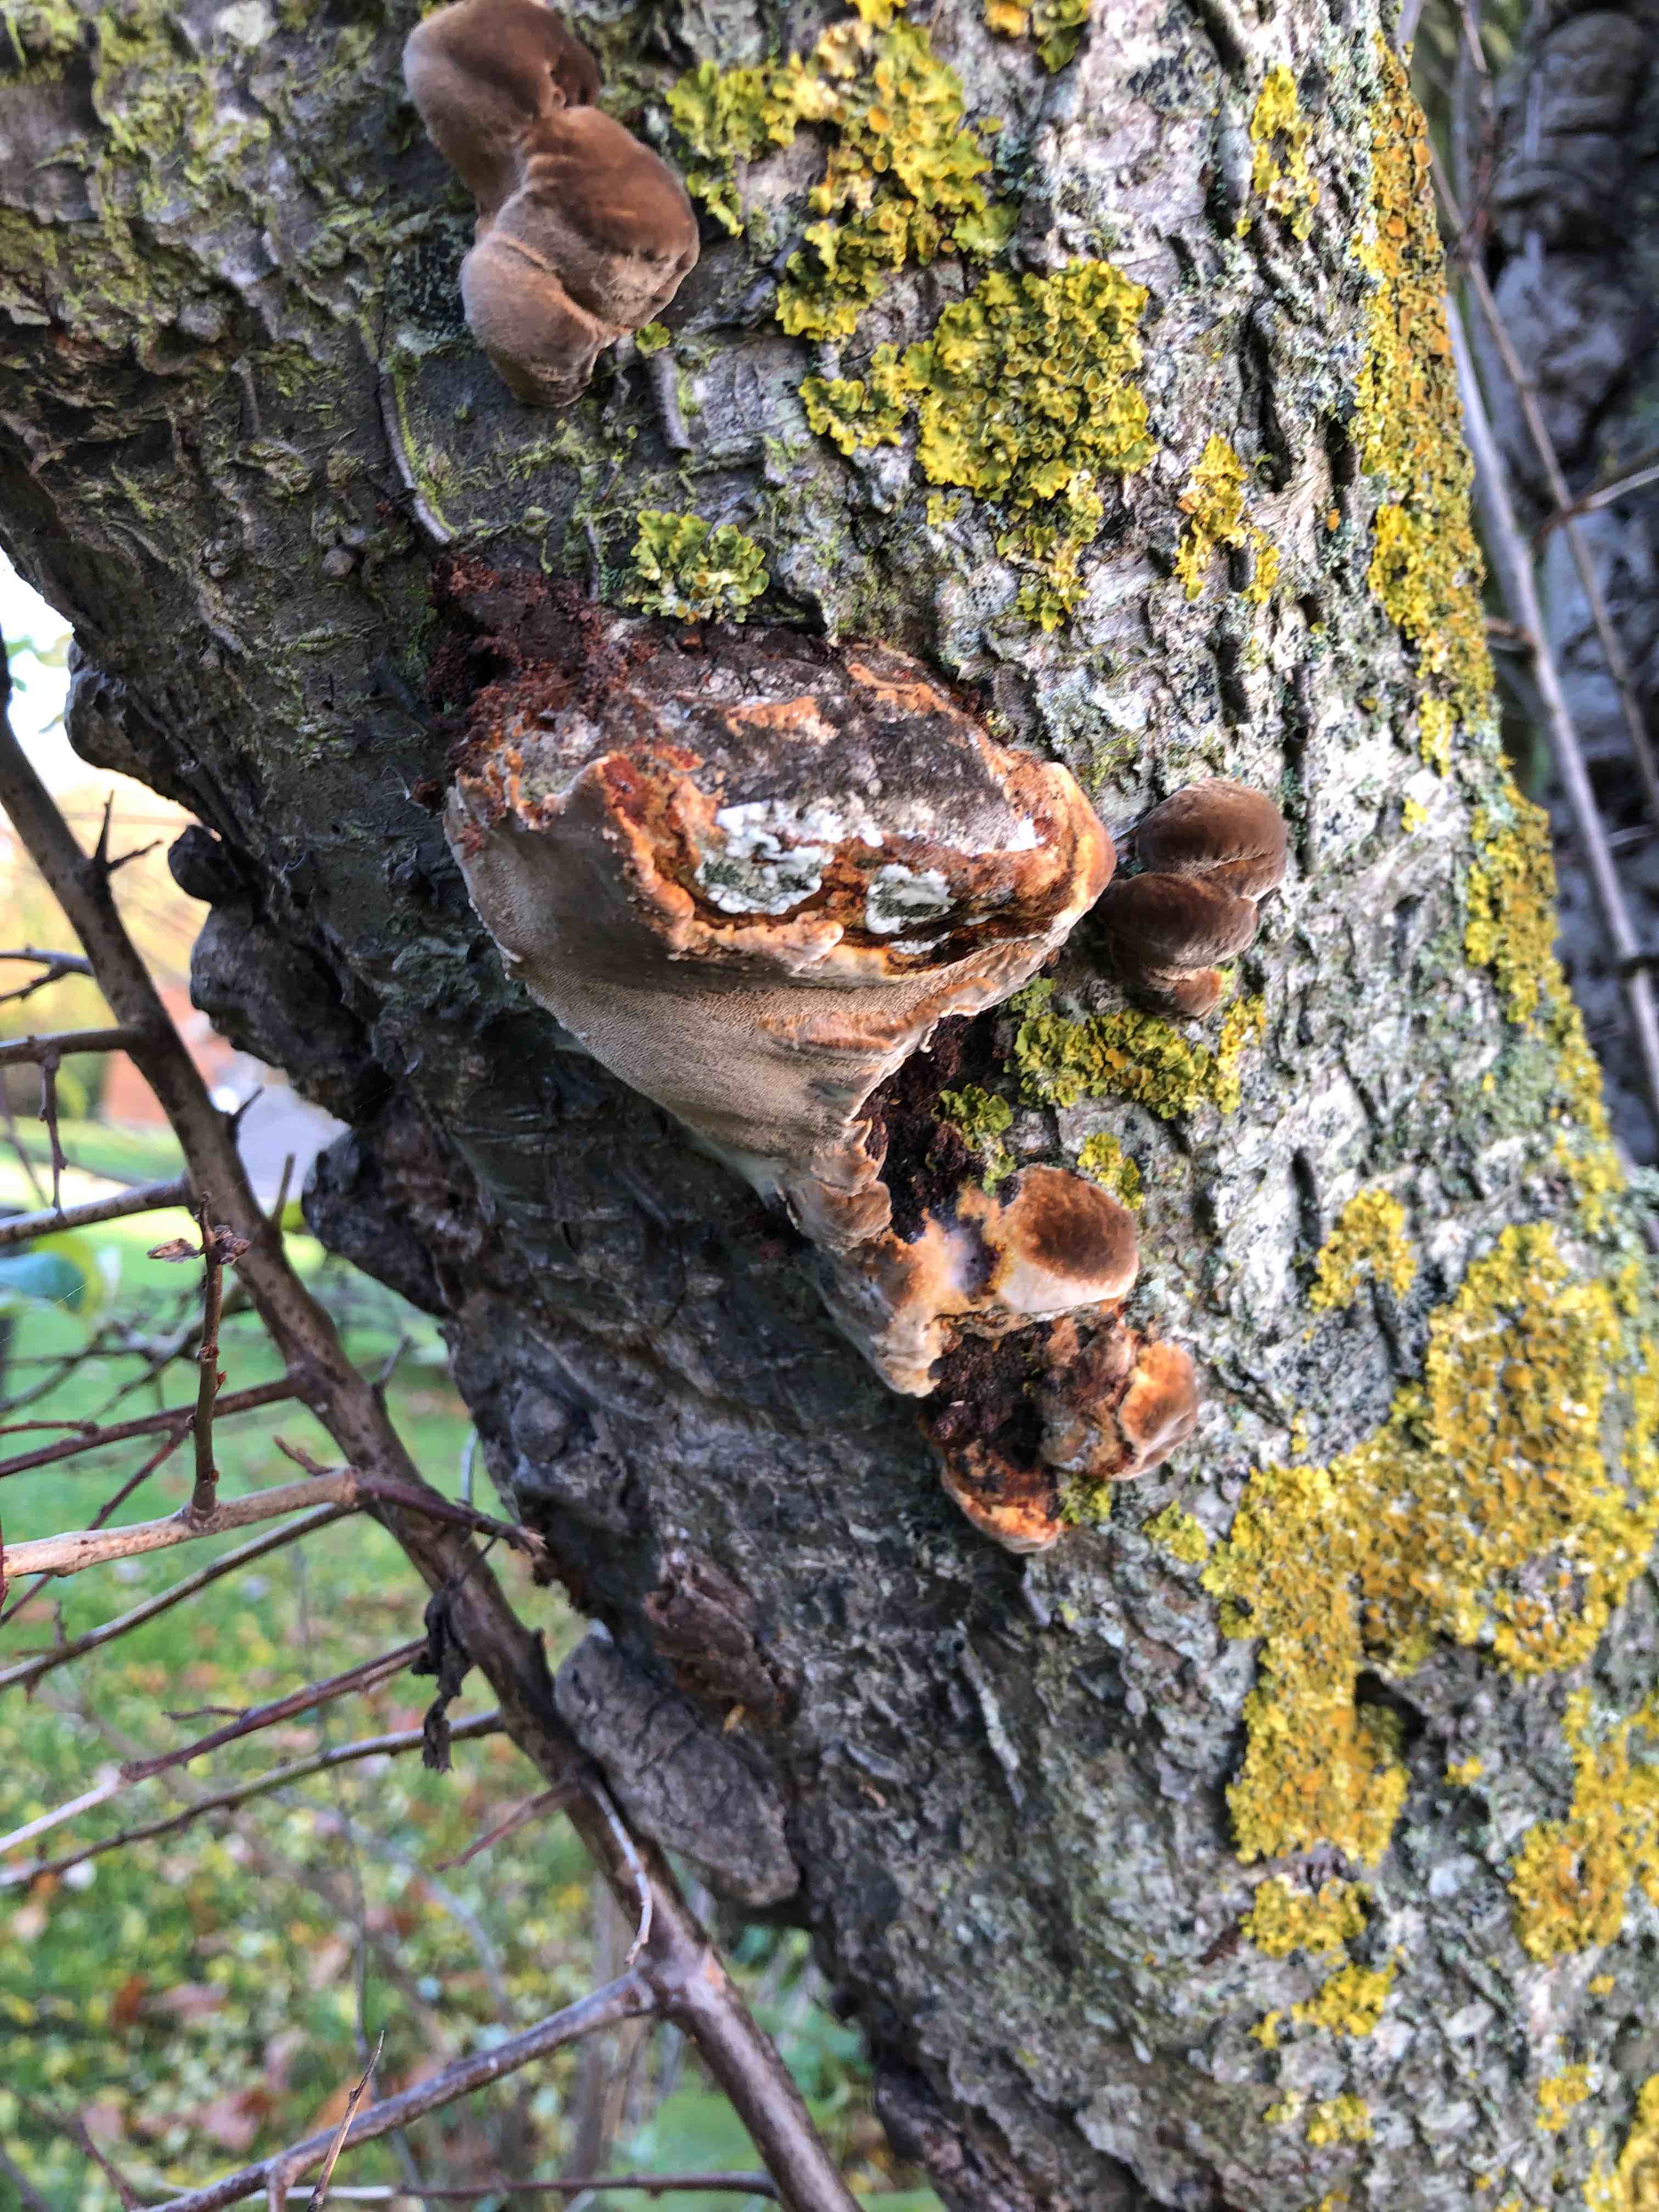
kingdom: Fungi
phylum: Basidiomycota
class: Agaricomycetes
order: Hymenochaetales
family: Hymenochaetaceae
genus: Phellinus
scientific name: Phellinus pomaceus
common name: blomme-ildporesvamp
